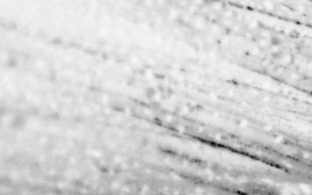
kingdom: Animalia
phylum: Chordata
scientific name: Chordata
